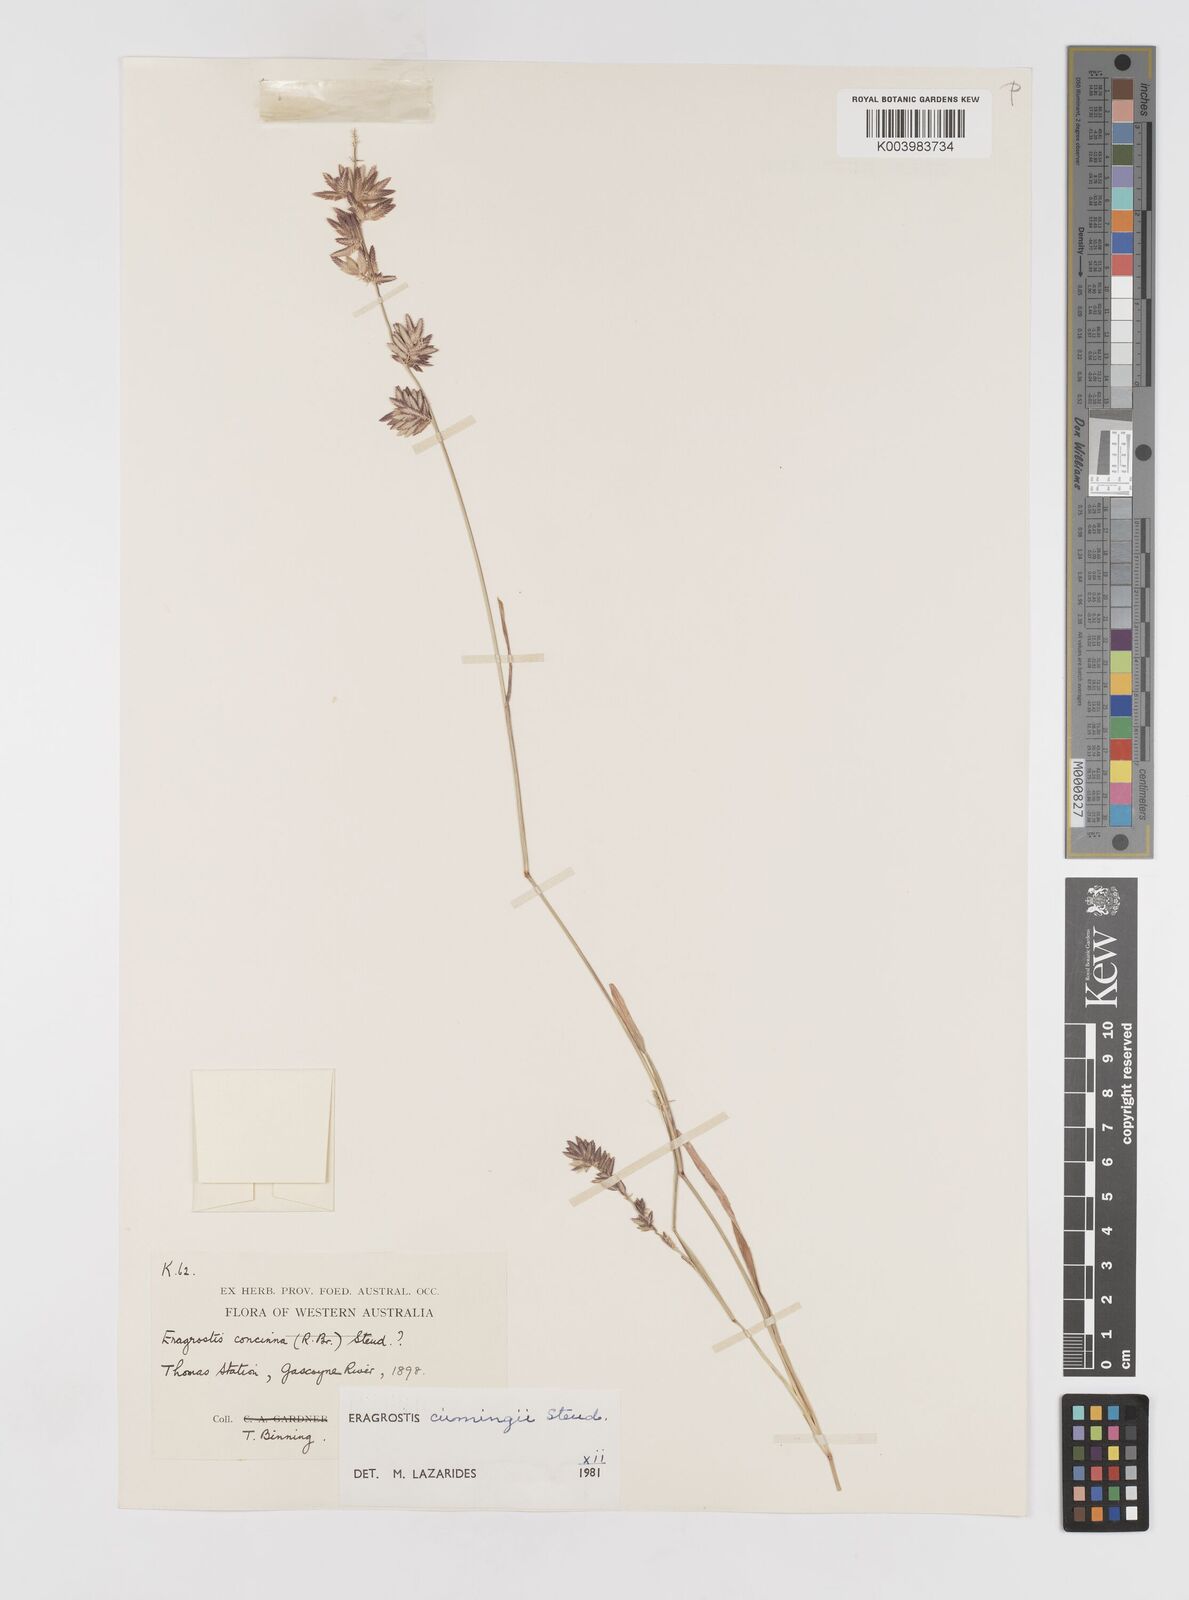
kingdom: Plantae
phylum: Tracheophyta
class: Liliopsida
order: Poales
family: Poaceae
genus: Eragrostis
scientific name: Eragrostis cumingii
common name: Cuming's lovegrass
